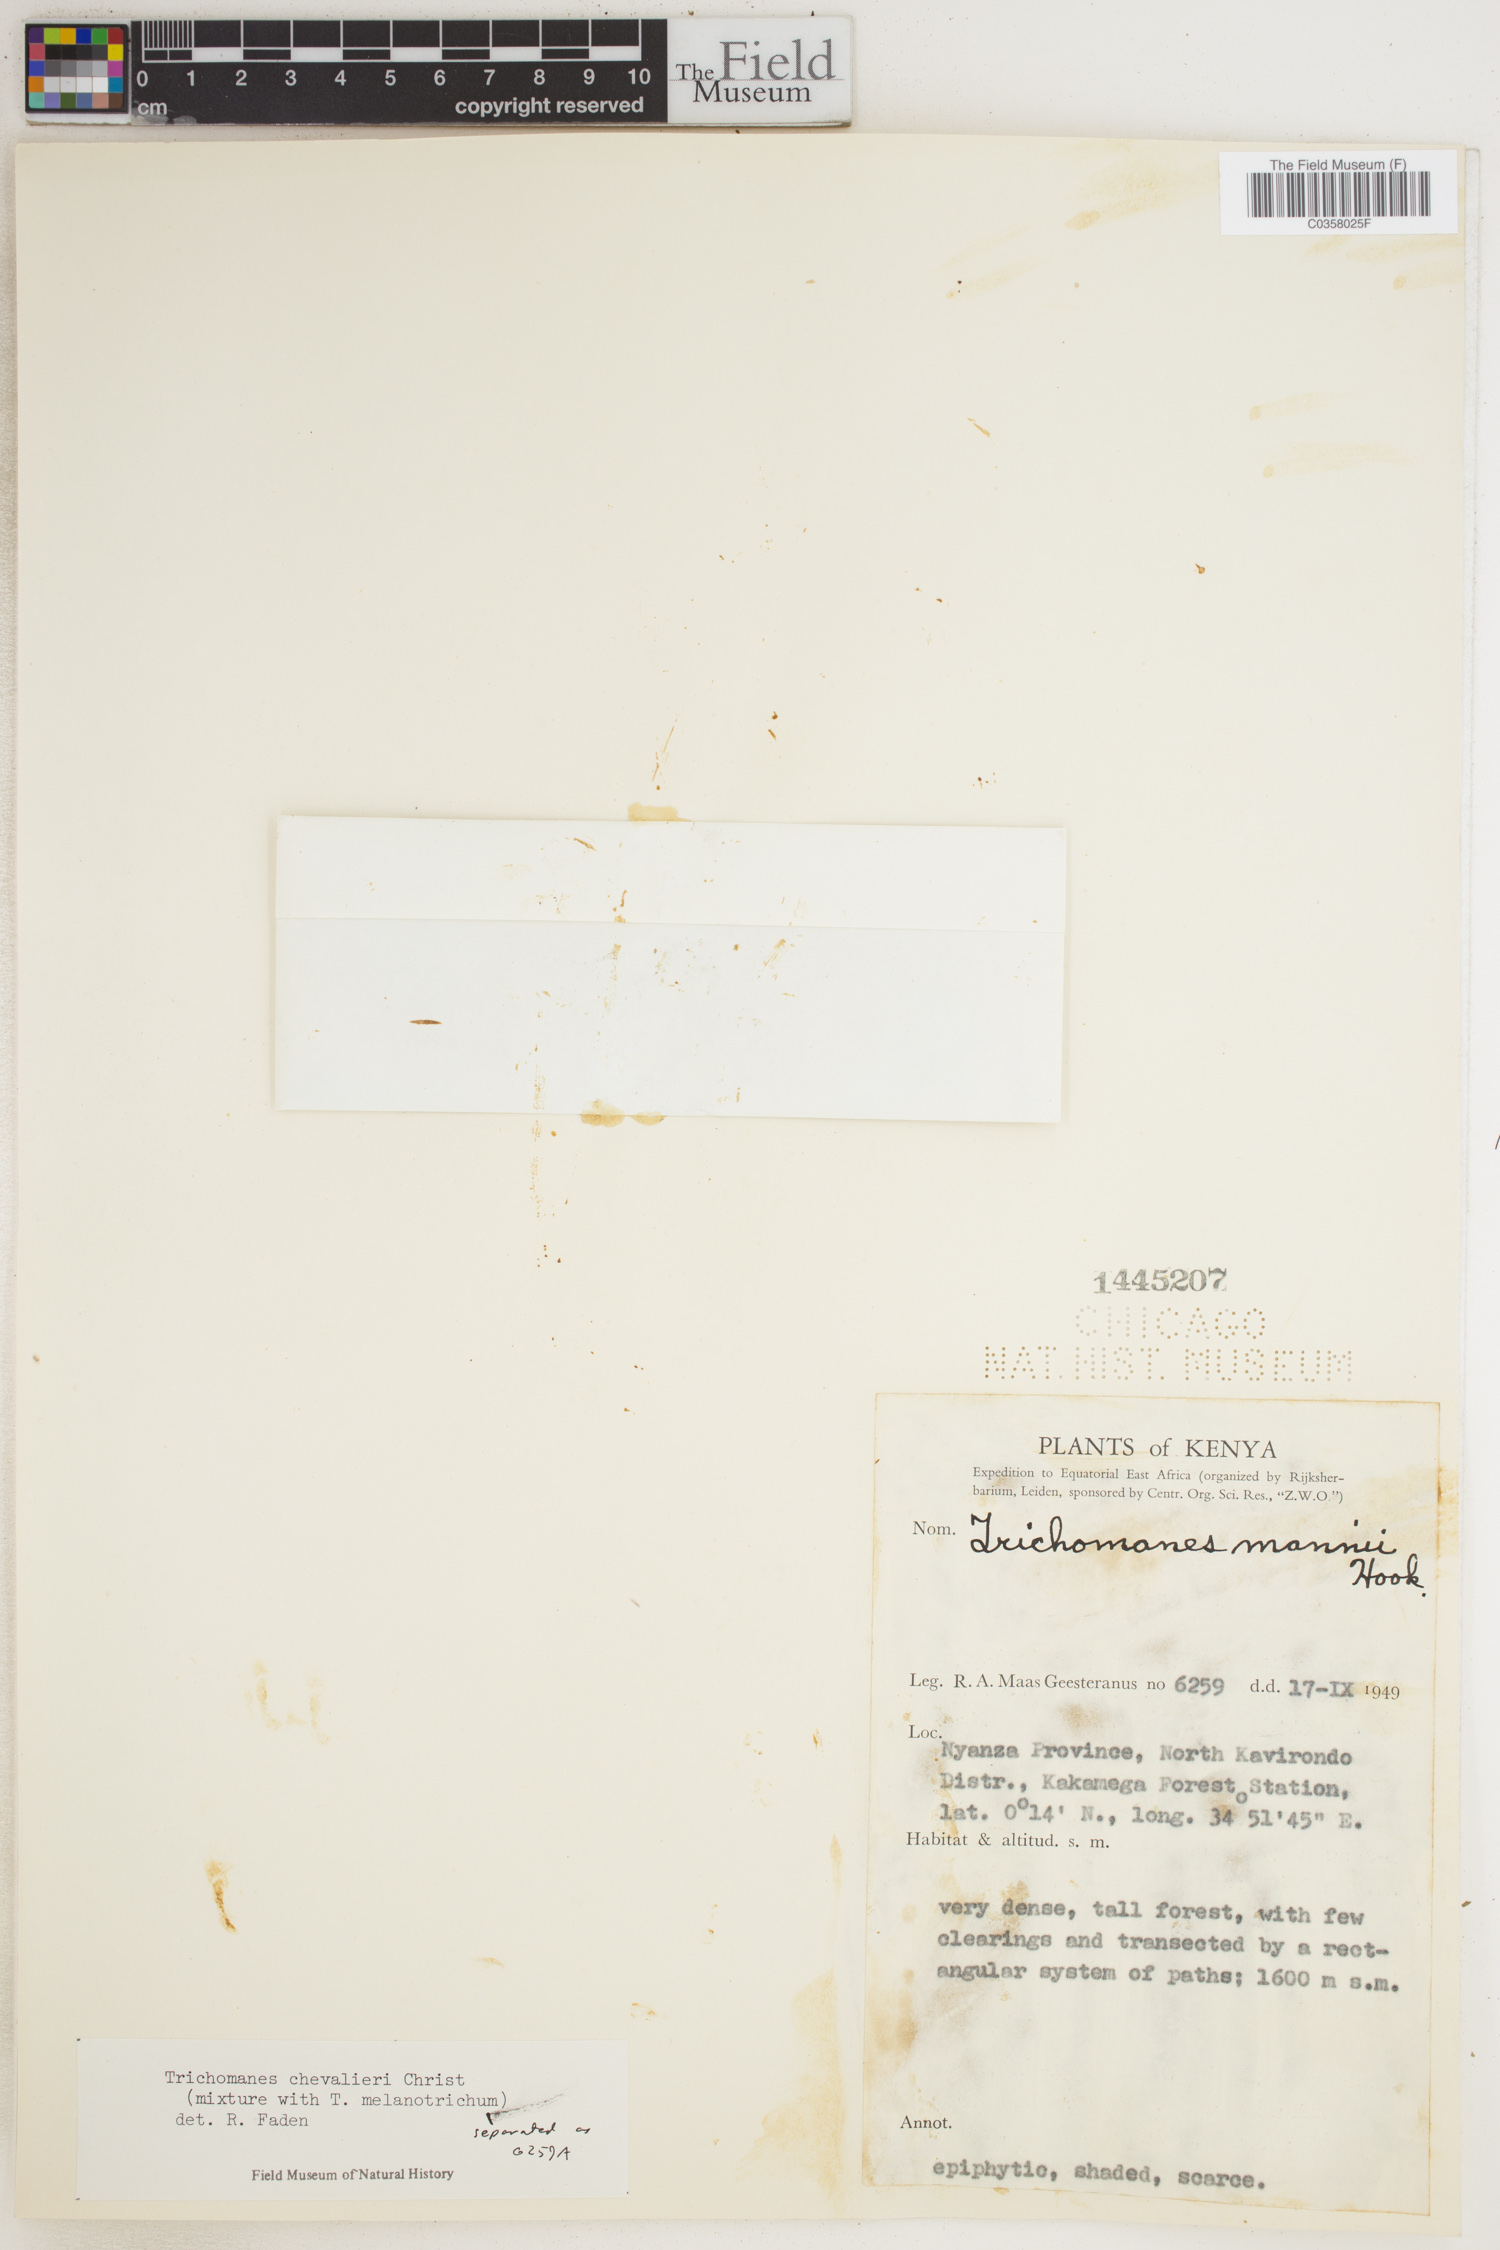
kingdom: Plantae
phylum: Tracheophyta
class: Polypodiopsida
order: Hymenophyllales
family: Hymenophyllaceae
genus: Crepidomanes
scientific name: Crepidomanes chevalieri
